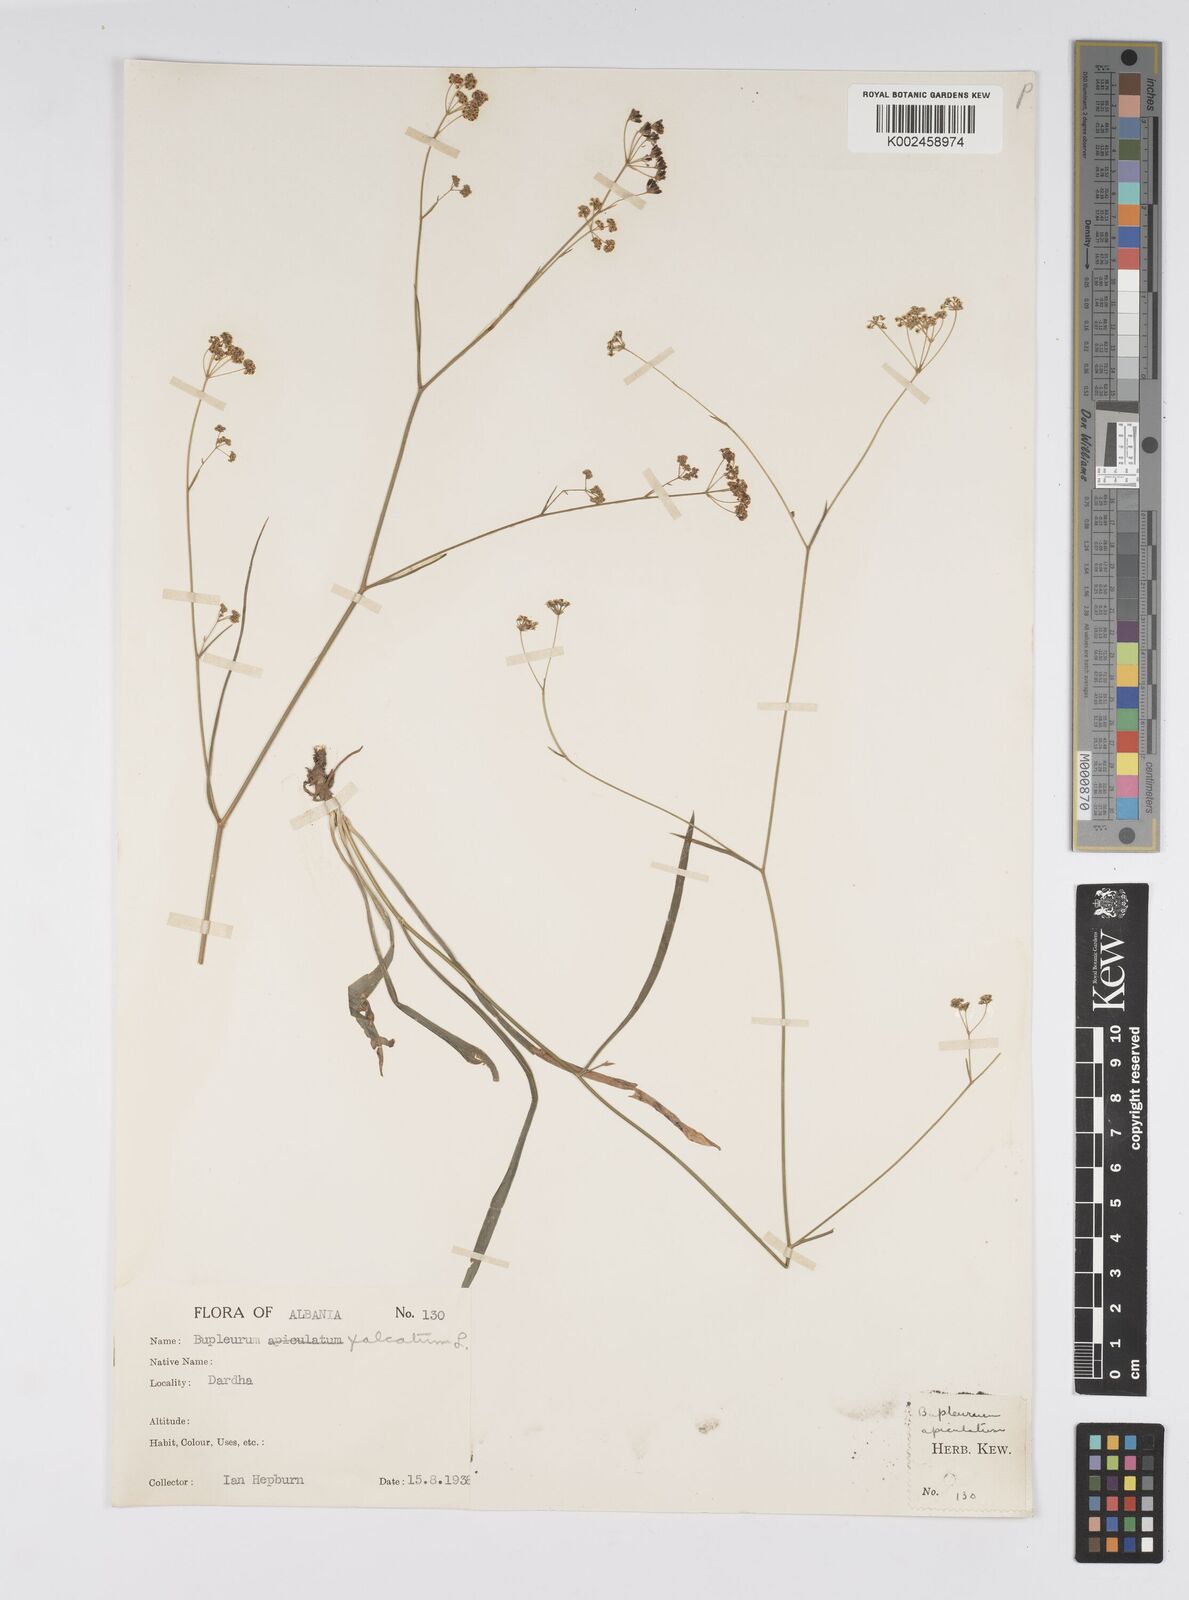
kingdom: Plantae
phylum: Tracheophyta
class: Magnoliopsida
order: Apiales
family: Apiaceae
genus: Bupleurum
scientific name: Bupleurum falcatum
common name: Sickle-leaved hare's-ear
